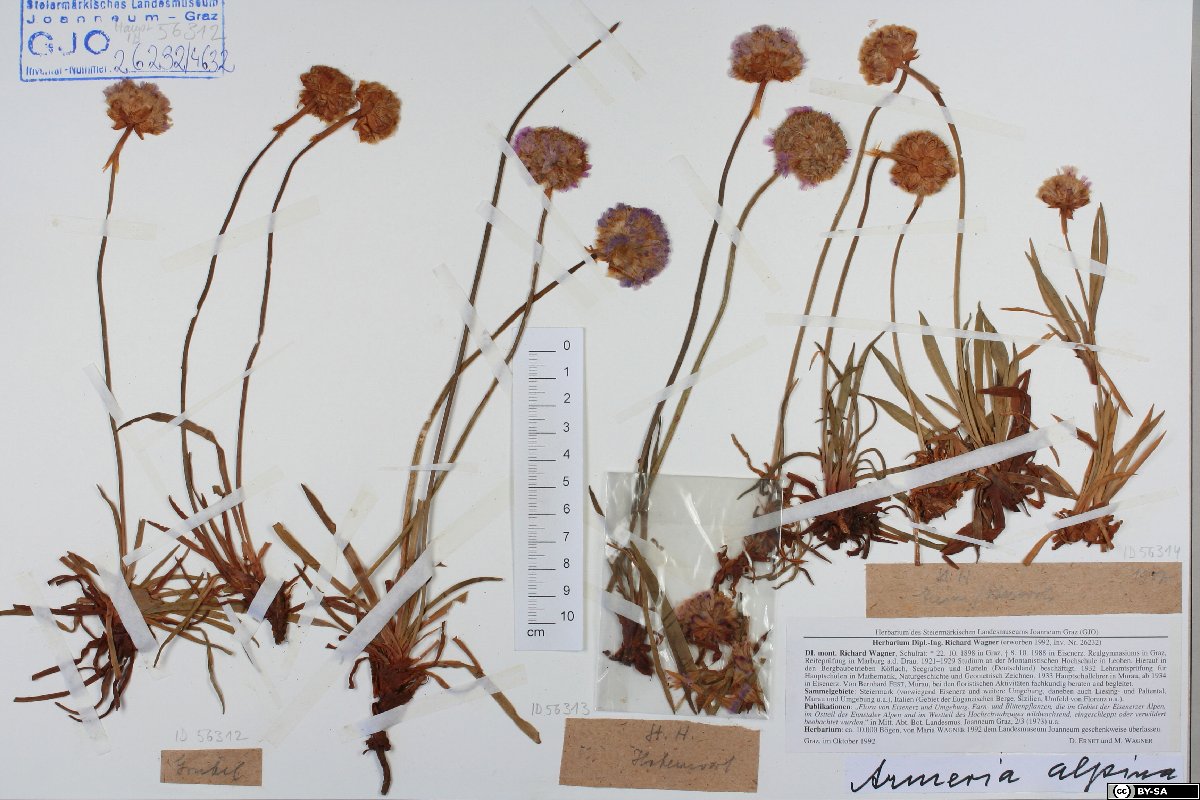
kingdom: Plantae
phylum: Tracheophyta
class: Magnoliopsida
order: Caryophyllales
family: Plumbaginaceae
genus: Armeria
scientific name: Armeria alpina
